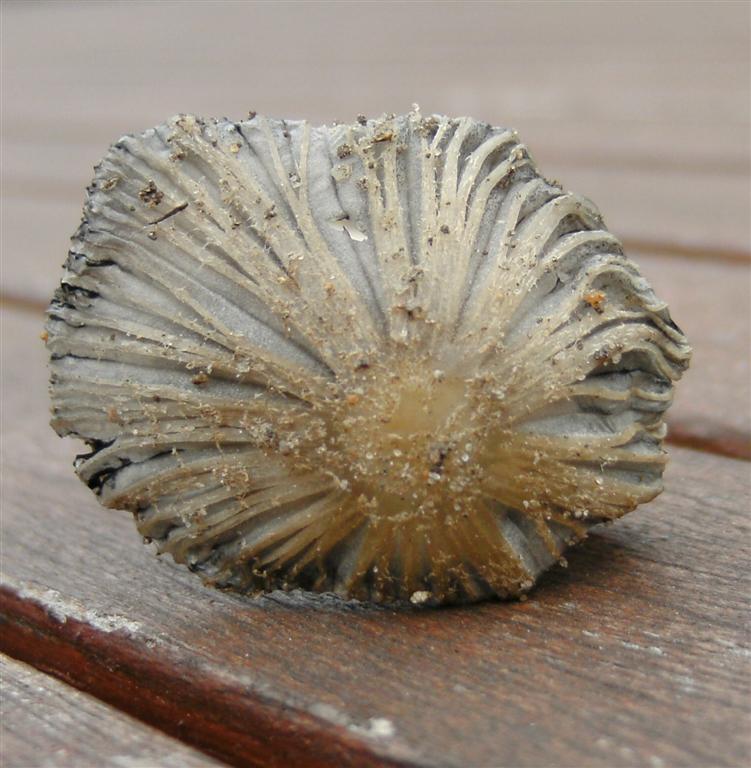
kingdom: Fungi
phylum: Basidiomycota
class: Agaricomycetes
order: Agaricales
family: Psathyrellaceae
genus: Coprinopsis
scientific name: Coprinopsis lagopus
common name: dunstokket blækhat
